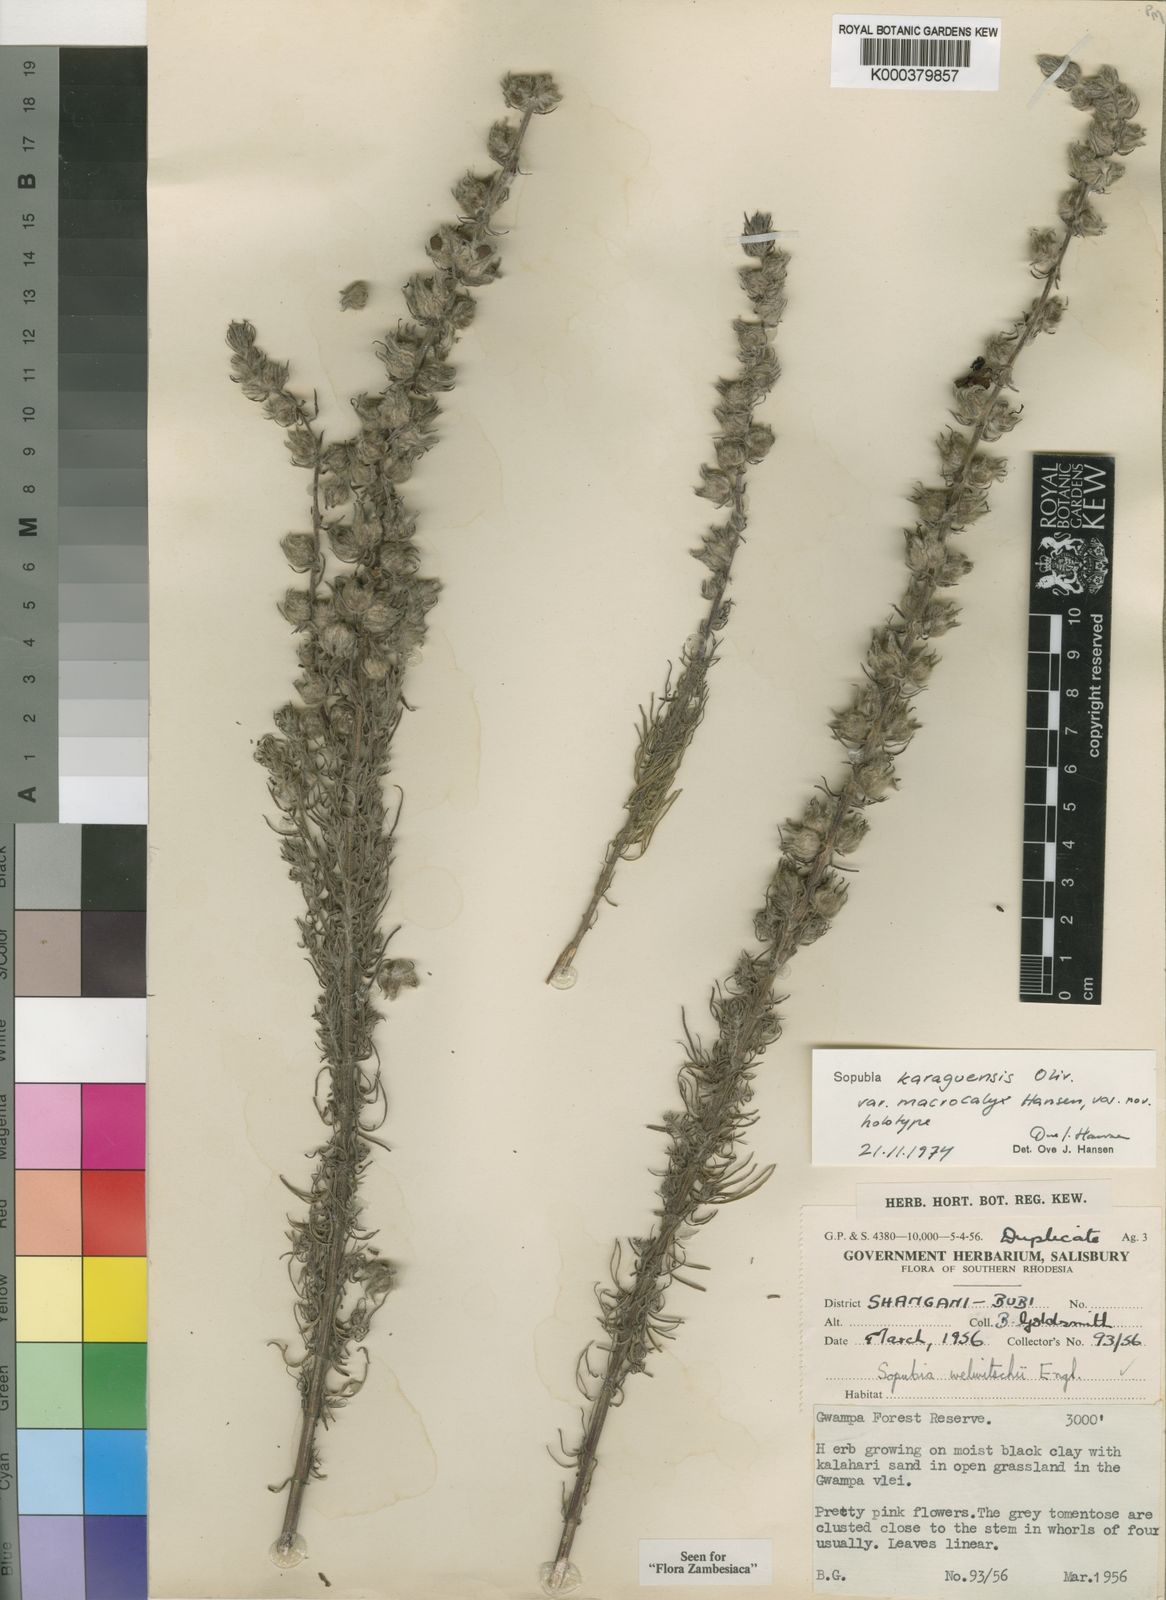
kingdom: Plantae
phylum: Tracheophyta
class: Magnoliopsida
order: Lamiales
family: Orobanchaceae
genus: Sopubia
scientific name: Sopubia karaguensis
